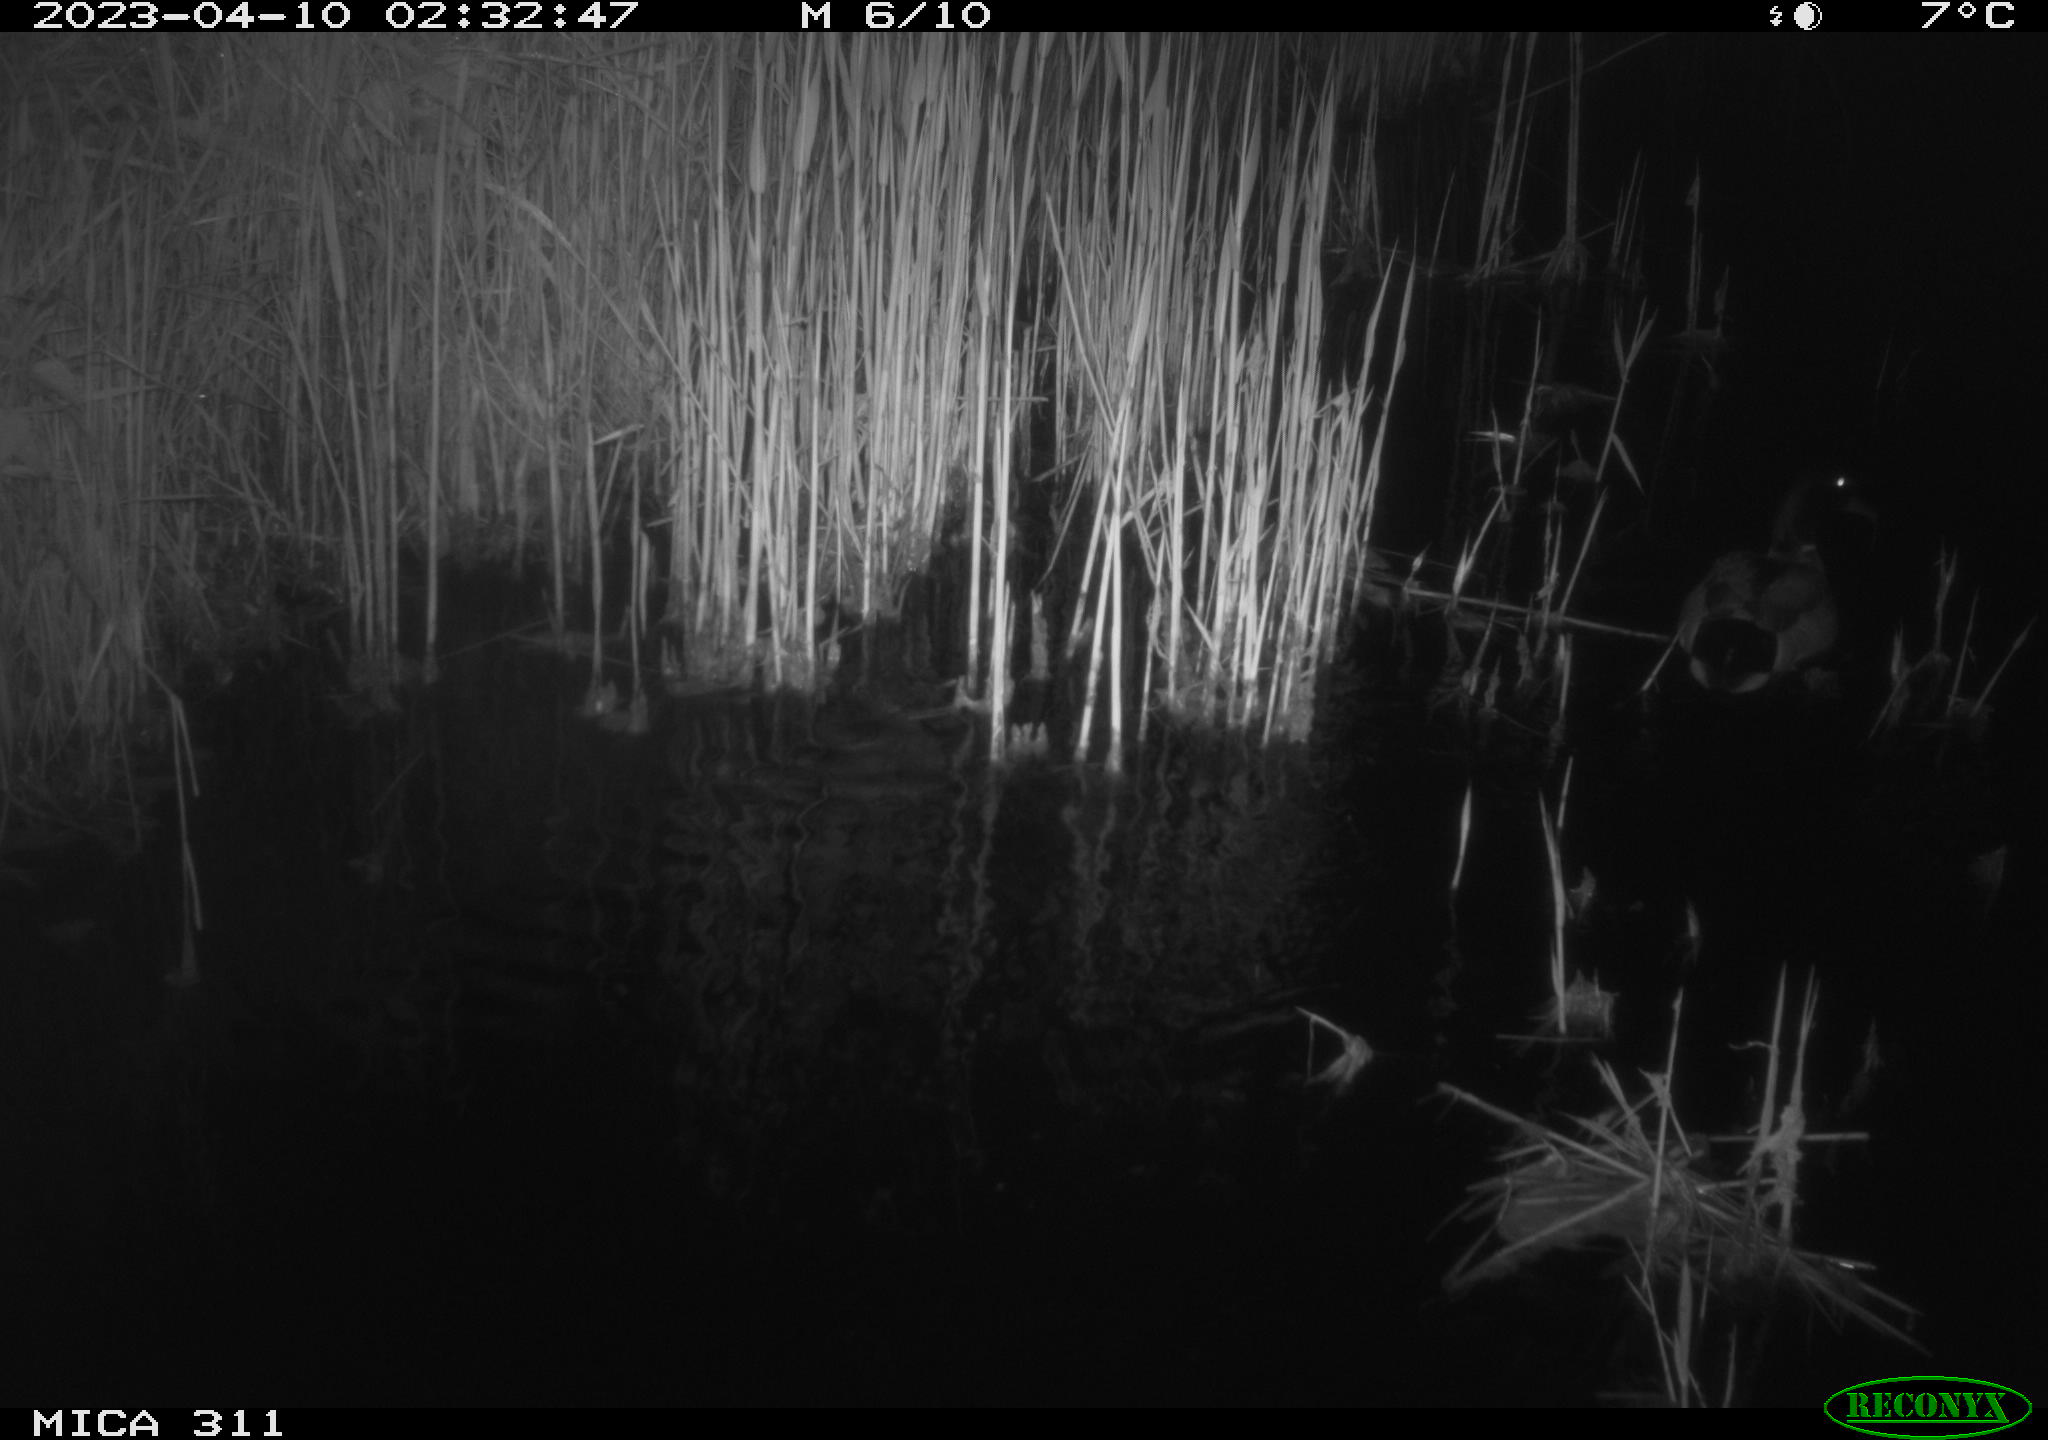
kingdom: Animalia
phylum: Chordata
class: Aves
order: Anseriformes
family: Anatidae
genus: Anas
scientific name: Anas
